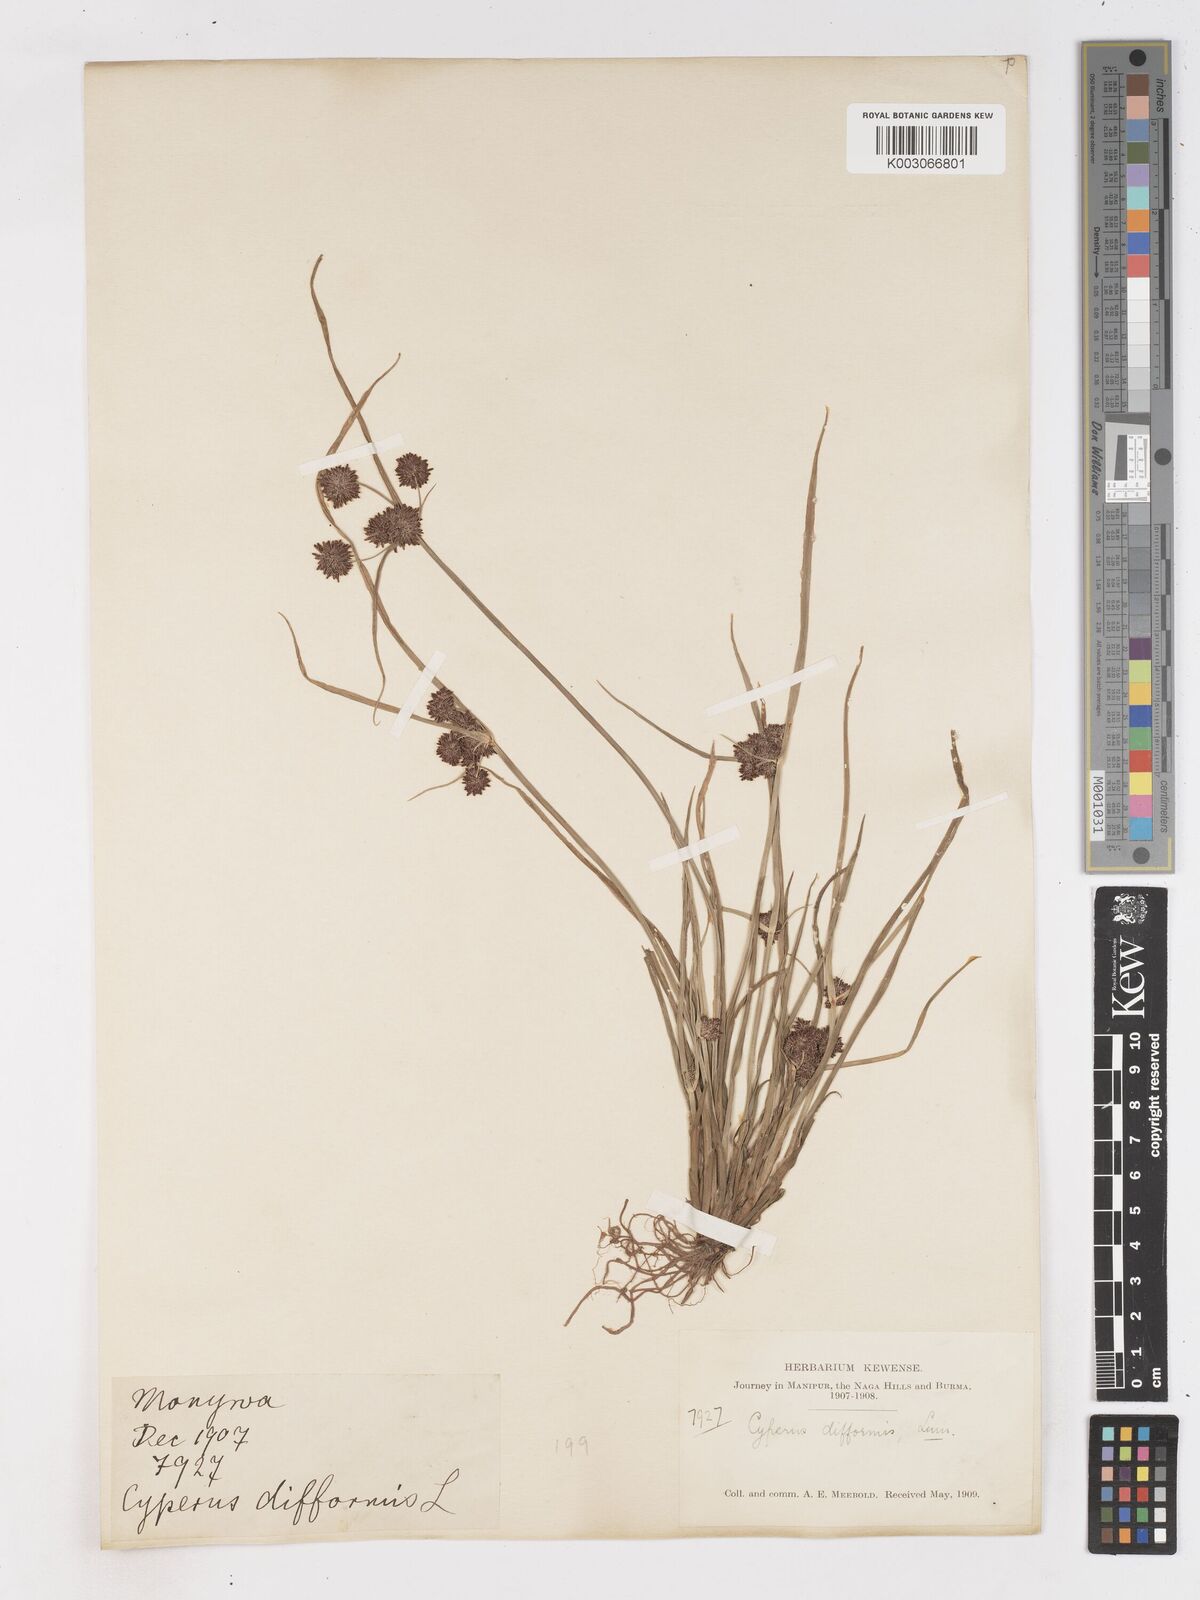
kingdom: Plantae
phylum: Tracheophyta
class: Liliopsida
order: Poales
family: Cyperaceae
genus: Cyperus
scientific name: Cyperus difformis
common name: Variable flatsedge
